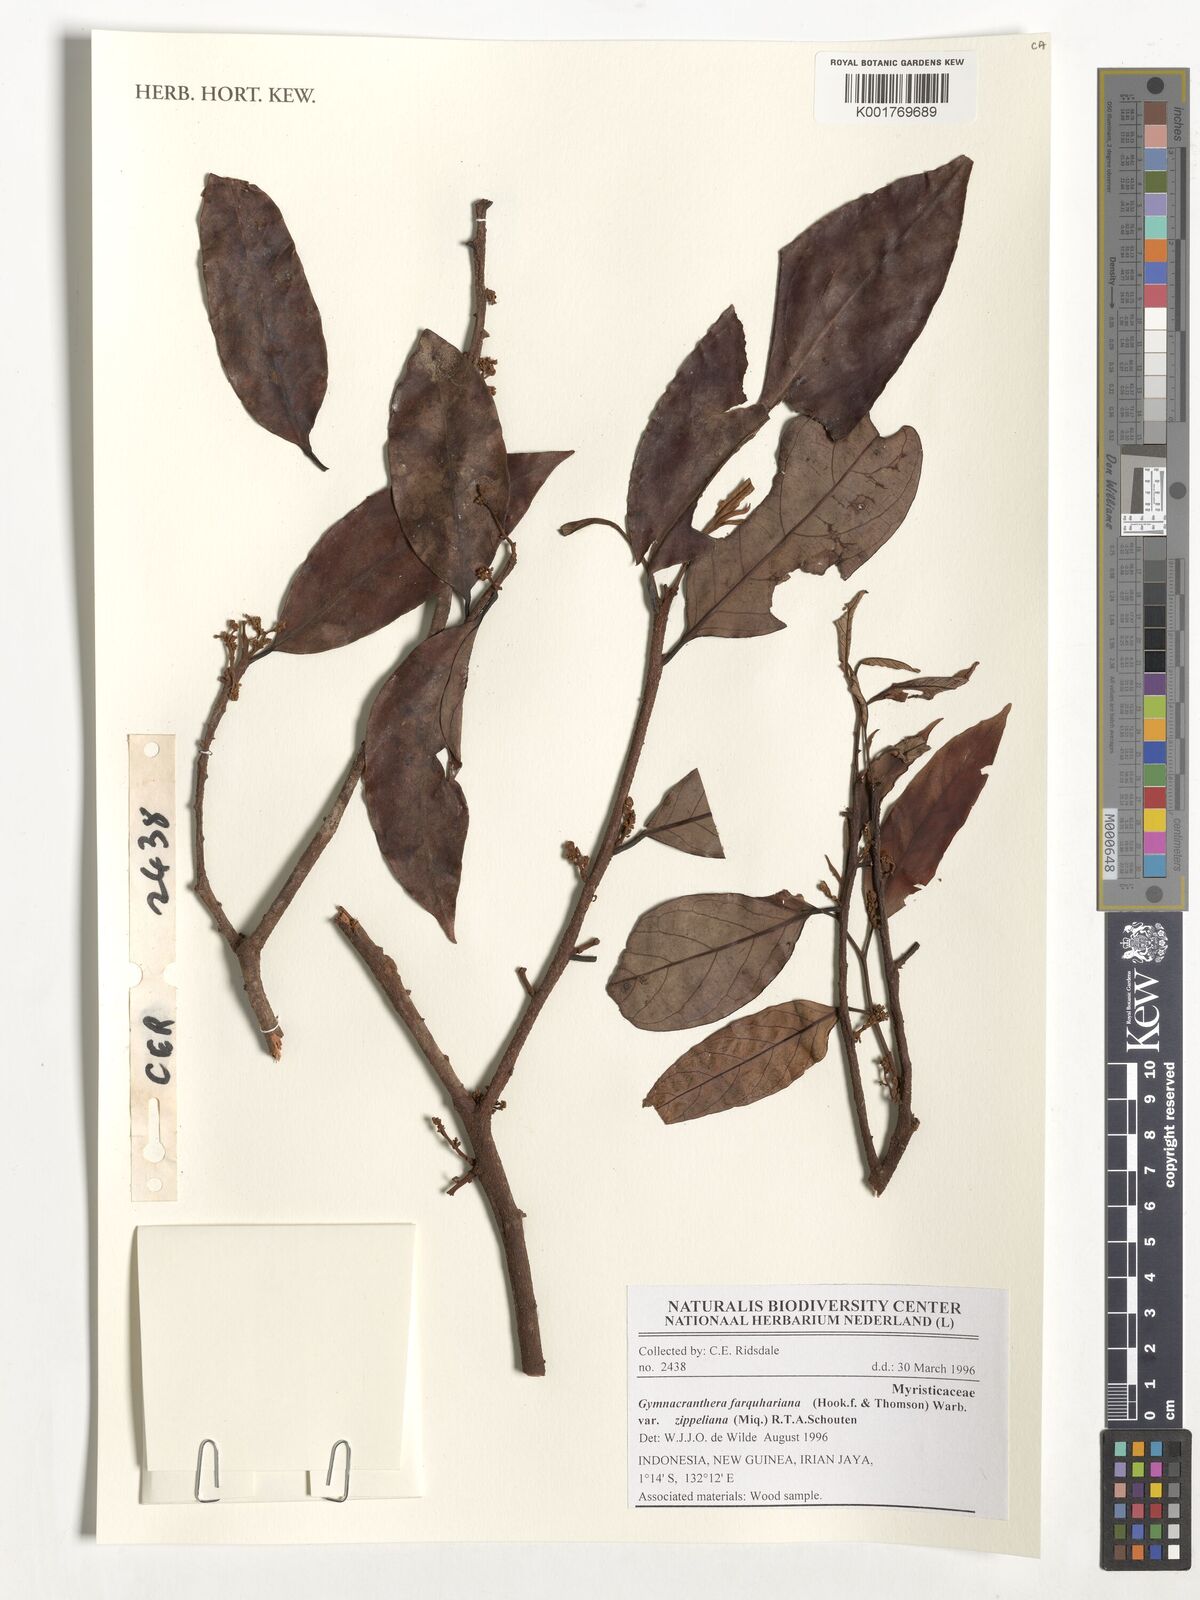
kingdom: Plantae
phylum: Tracheophyta
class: Magnoliopsida
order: Magnoliales
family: Myristicaceae
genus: Gymnacranthera
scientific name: Gymnacranthera farquhariana
